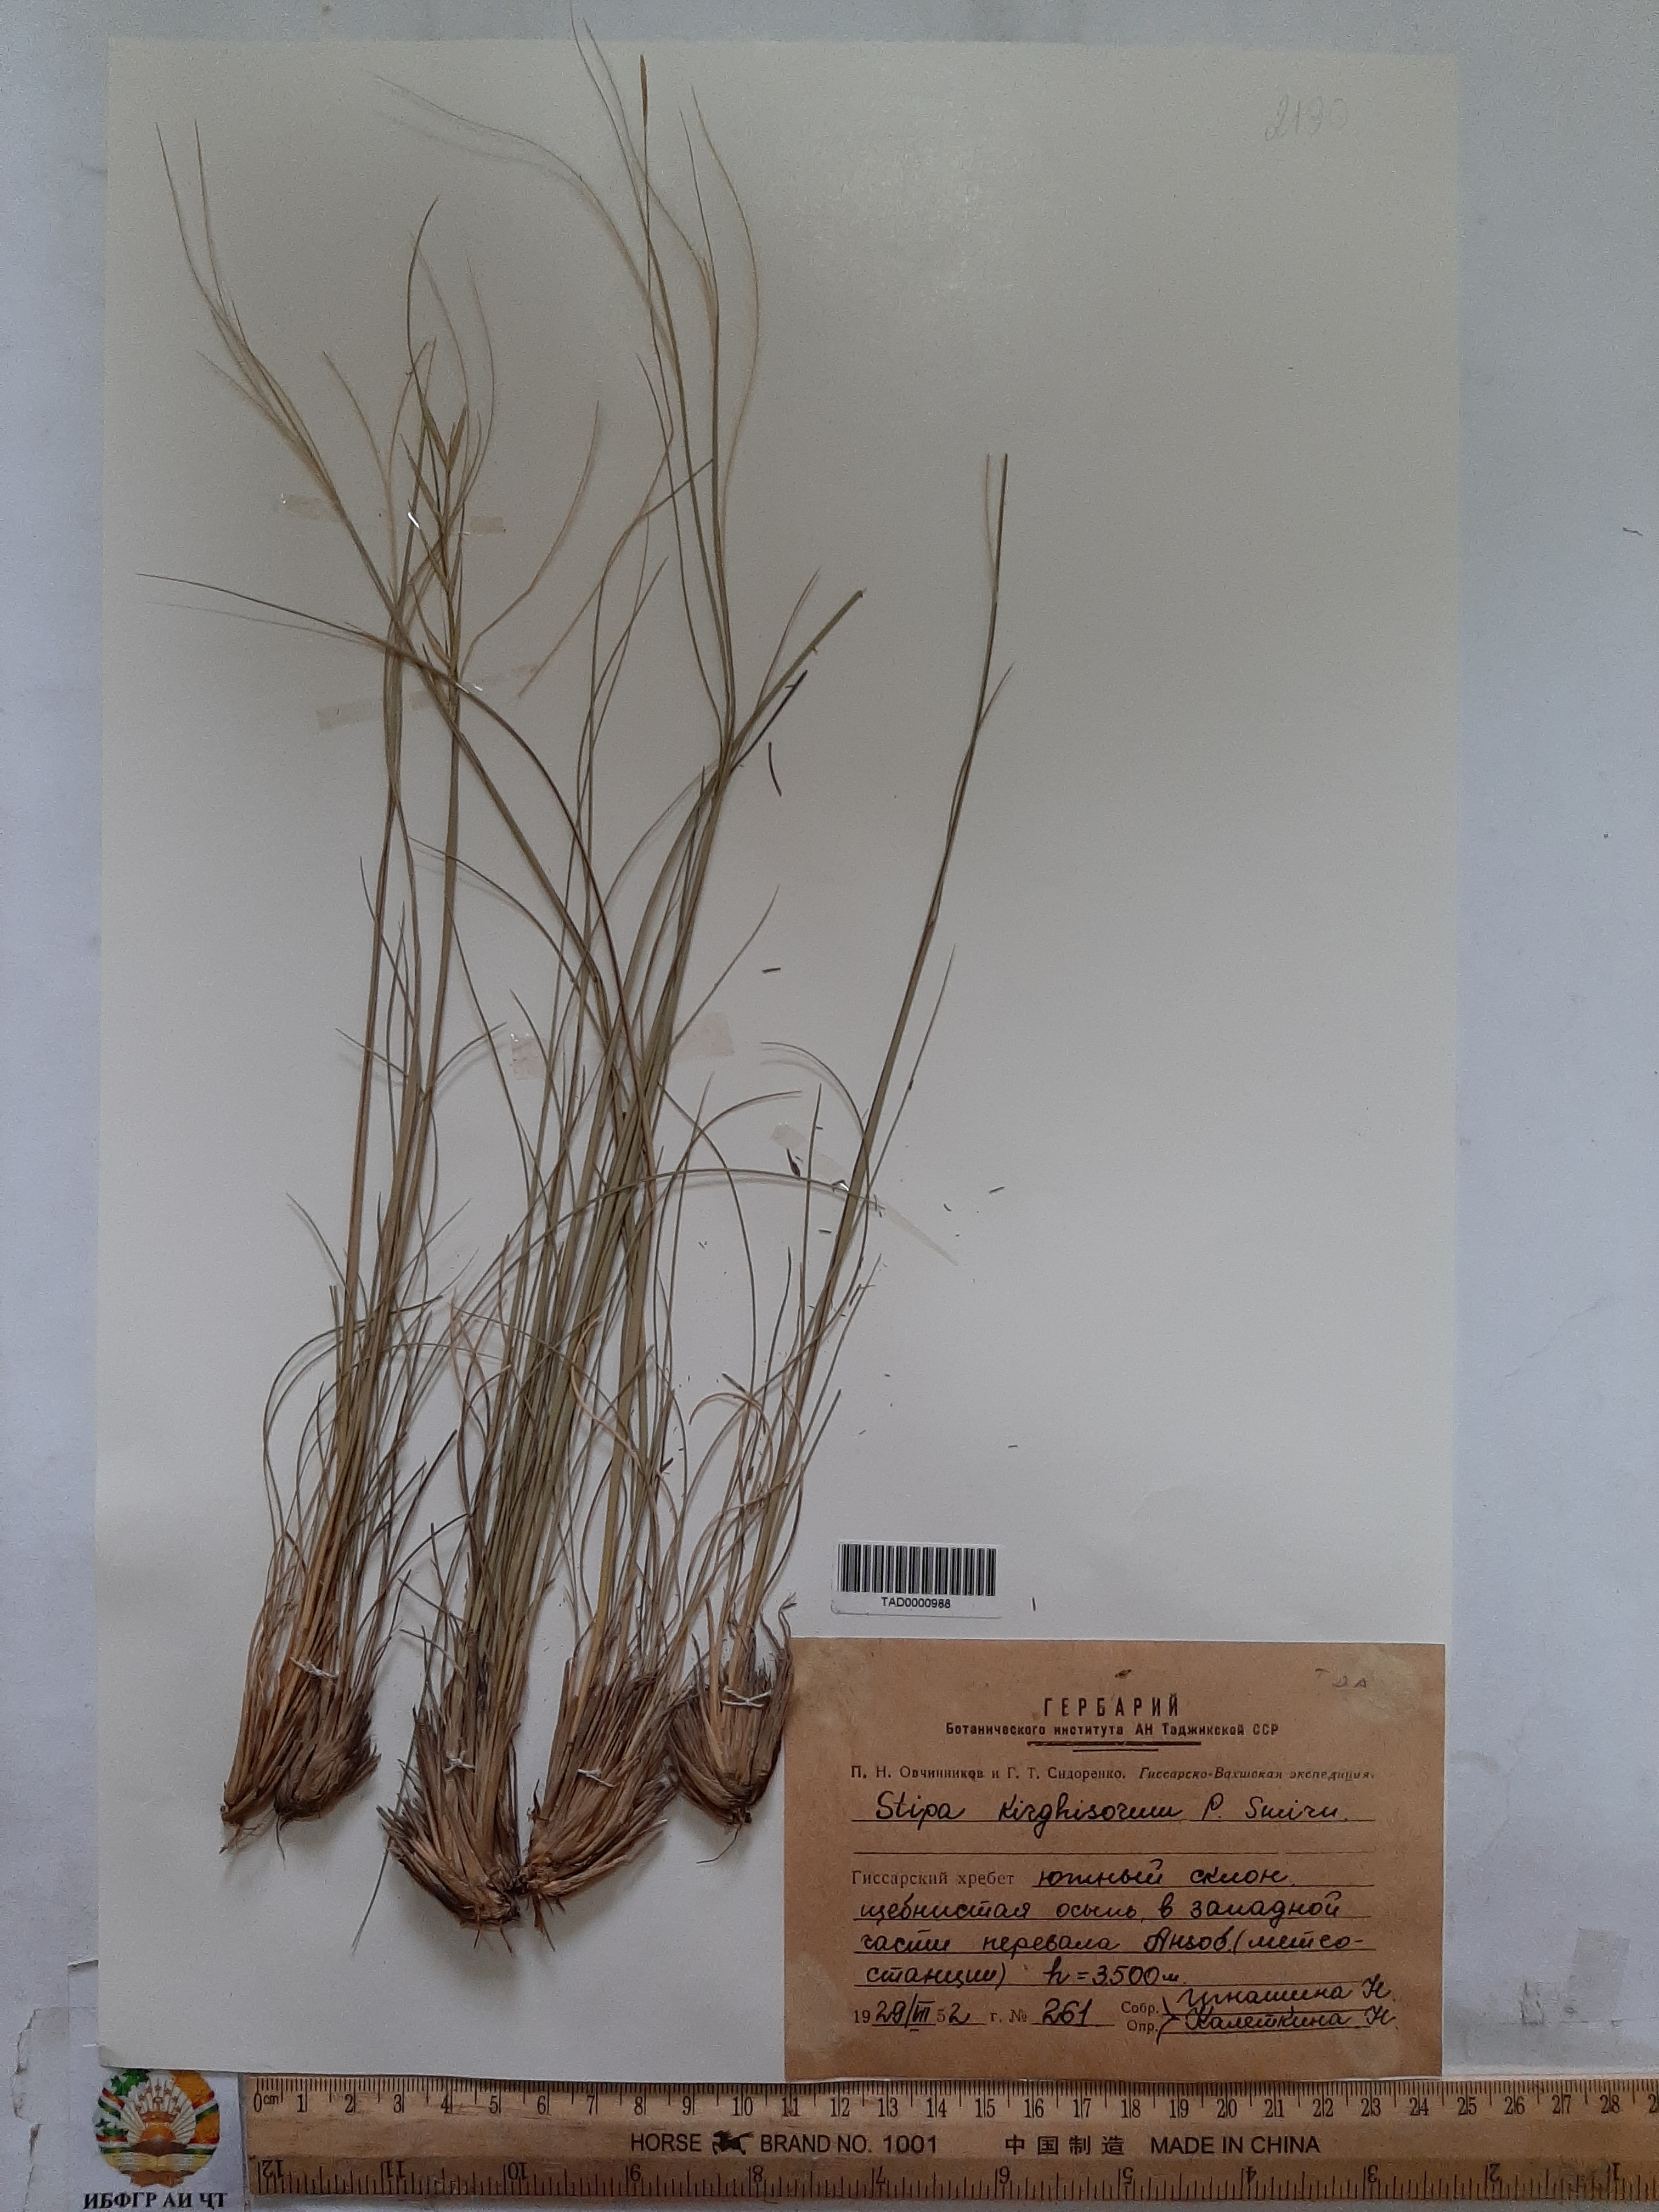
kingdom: Plantae
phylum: Tracheophyta
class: Liliopsida
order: Poales
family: Poaceae
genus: Stipa
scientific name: Stipa kirghisorum
